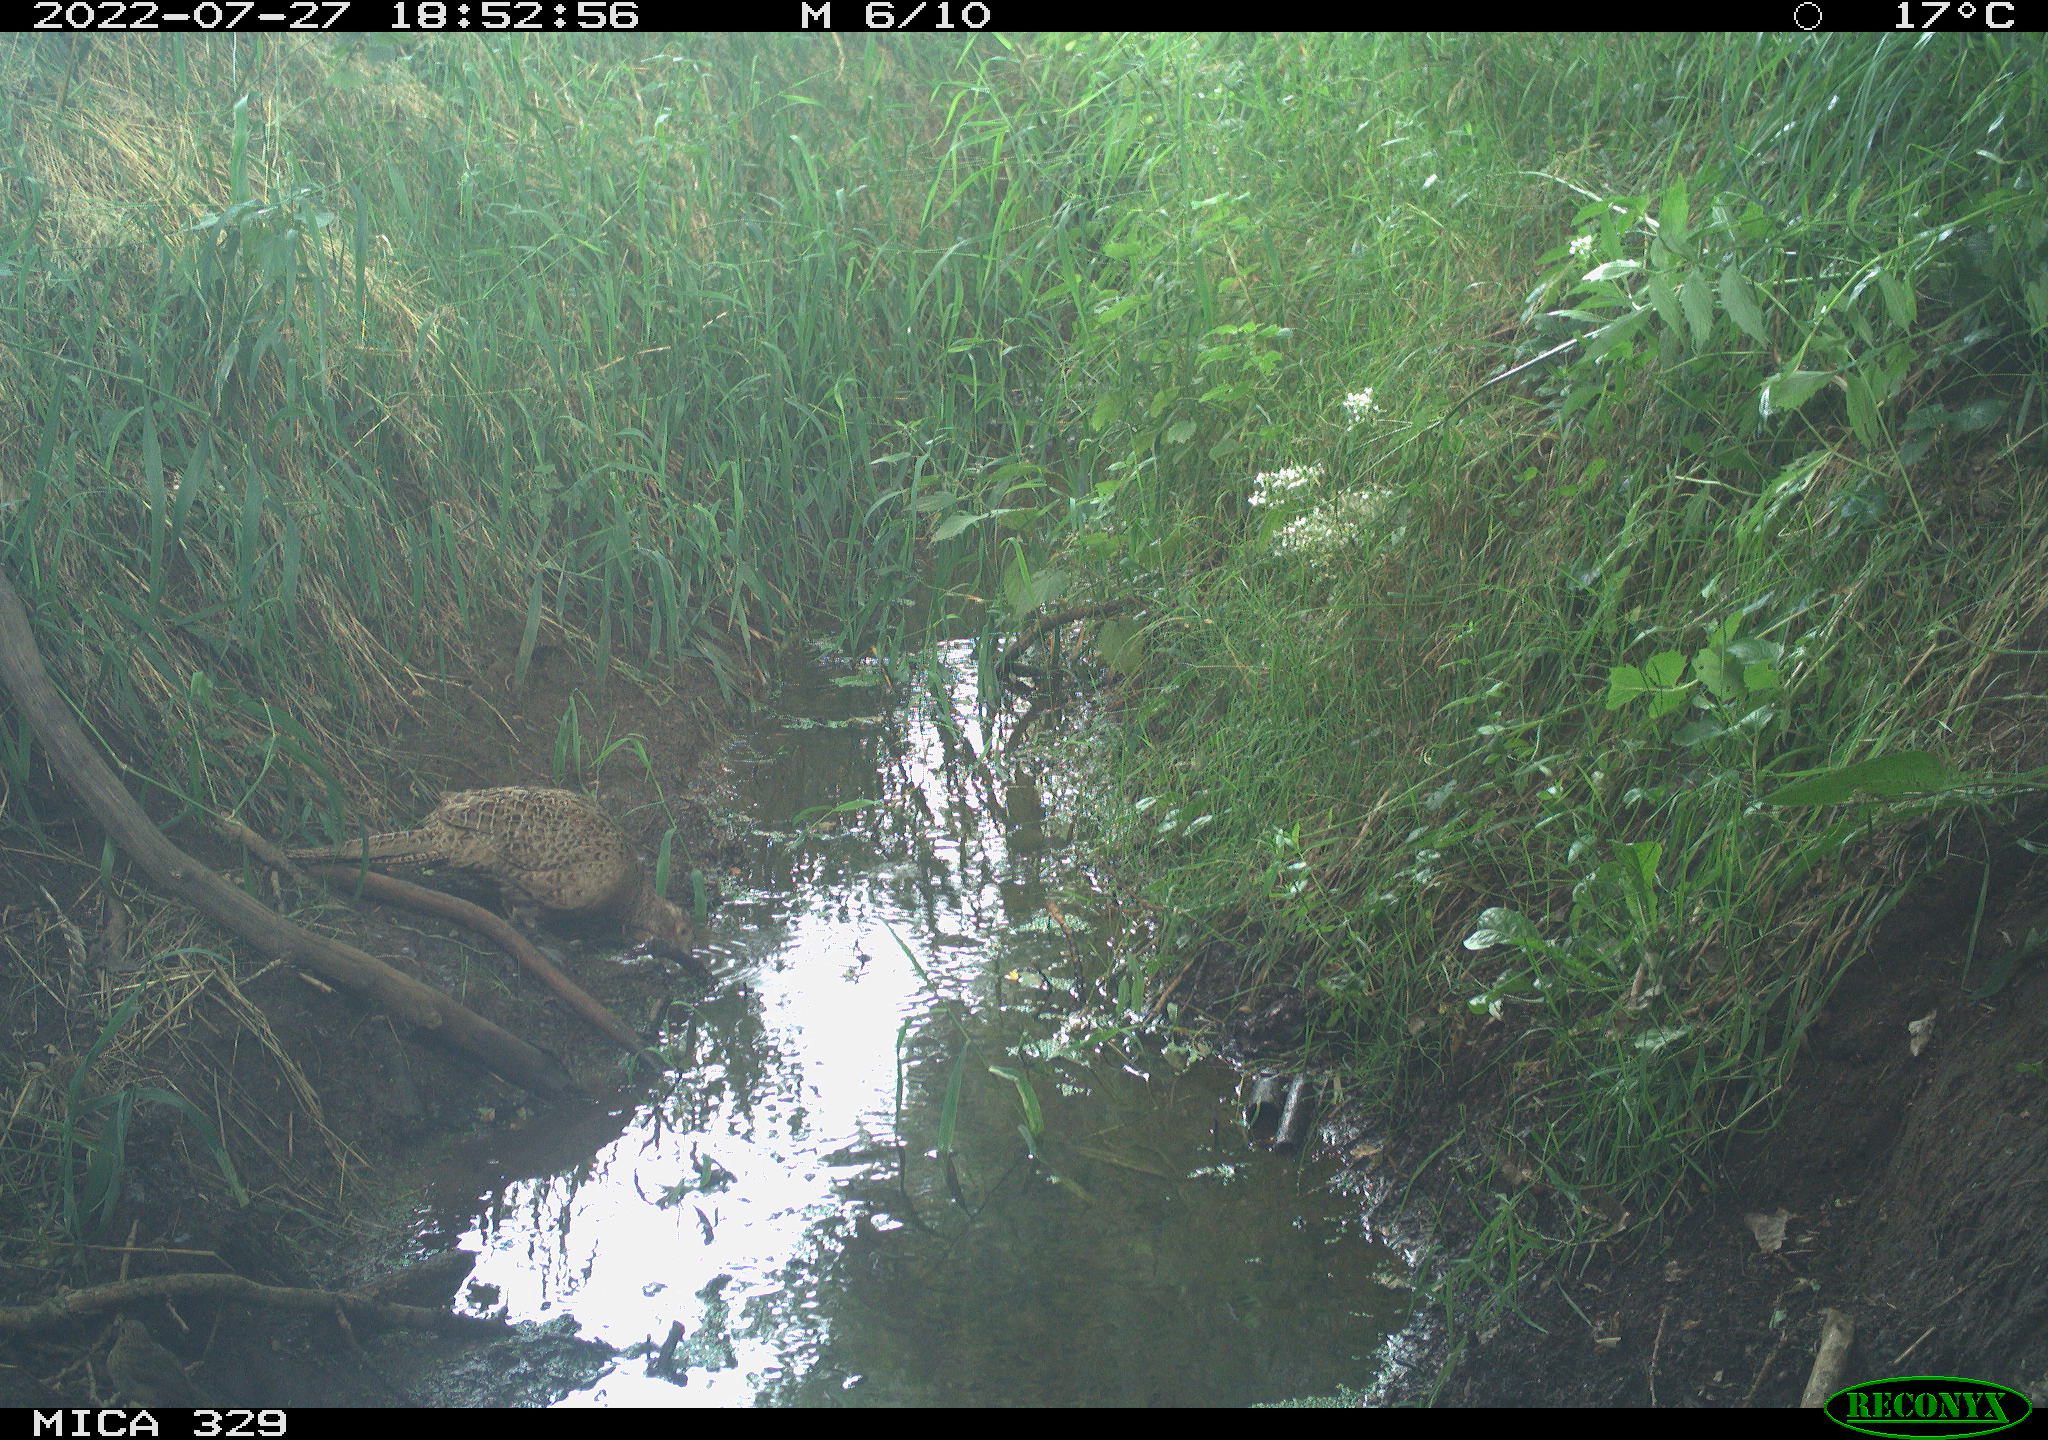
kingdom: Animalia
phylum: Chordata
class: Aves
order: Galliformes
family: Phasianidae
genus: Phasianus
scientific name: Phasianus colchicus
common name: Common pheasant
